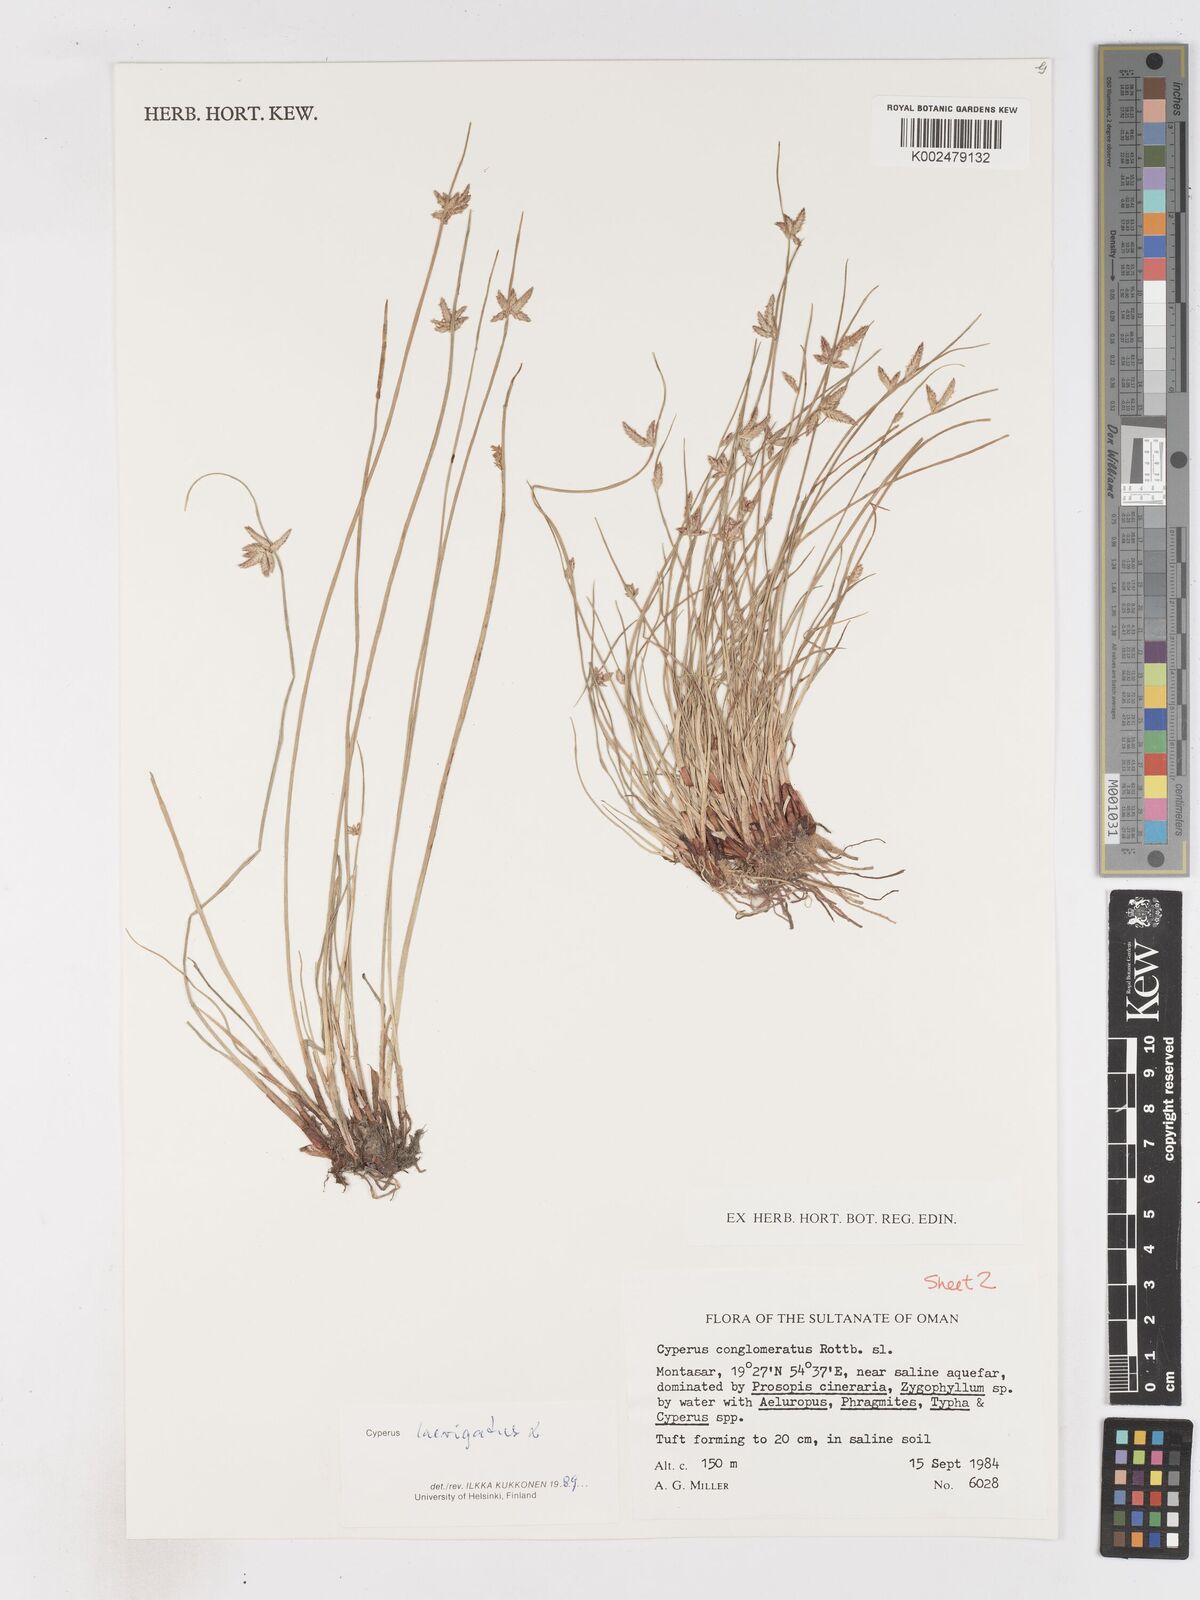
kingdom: Plantae
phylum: Tracheophyta
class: Liliopsida
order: Poales
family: Cyperaceae
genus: Cyperus
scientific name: Cyperus laevigatus
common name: Smooth flat sedge
